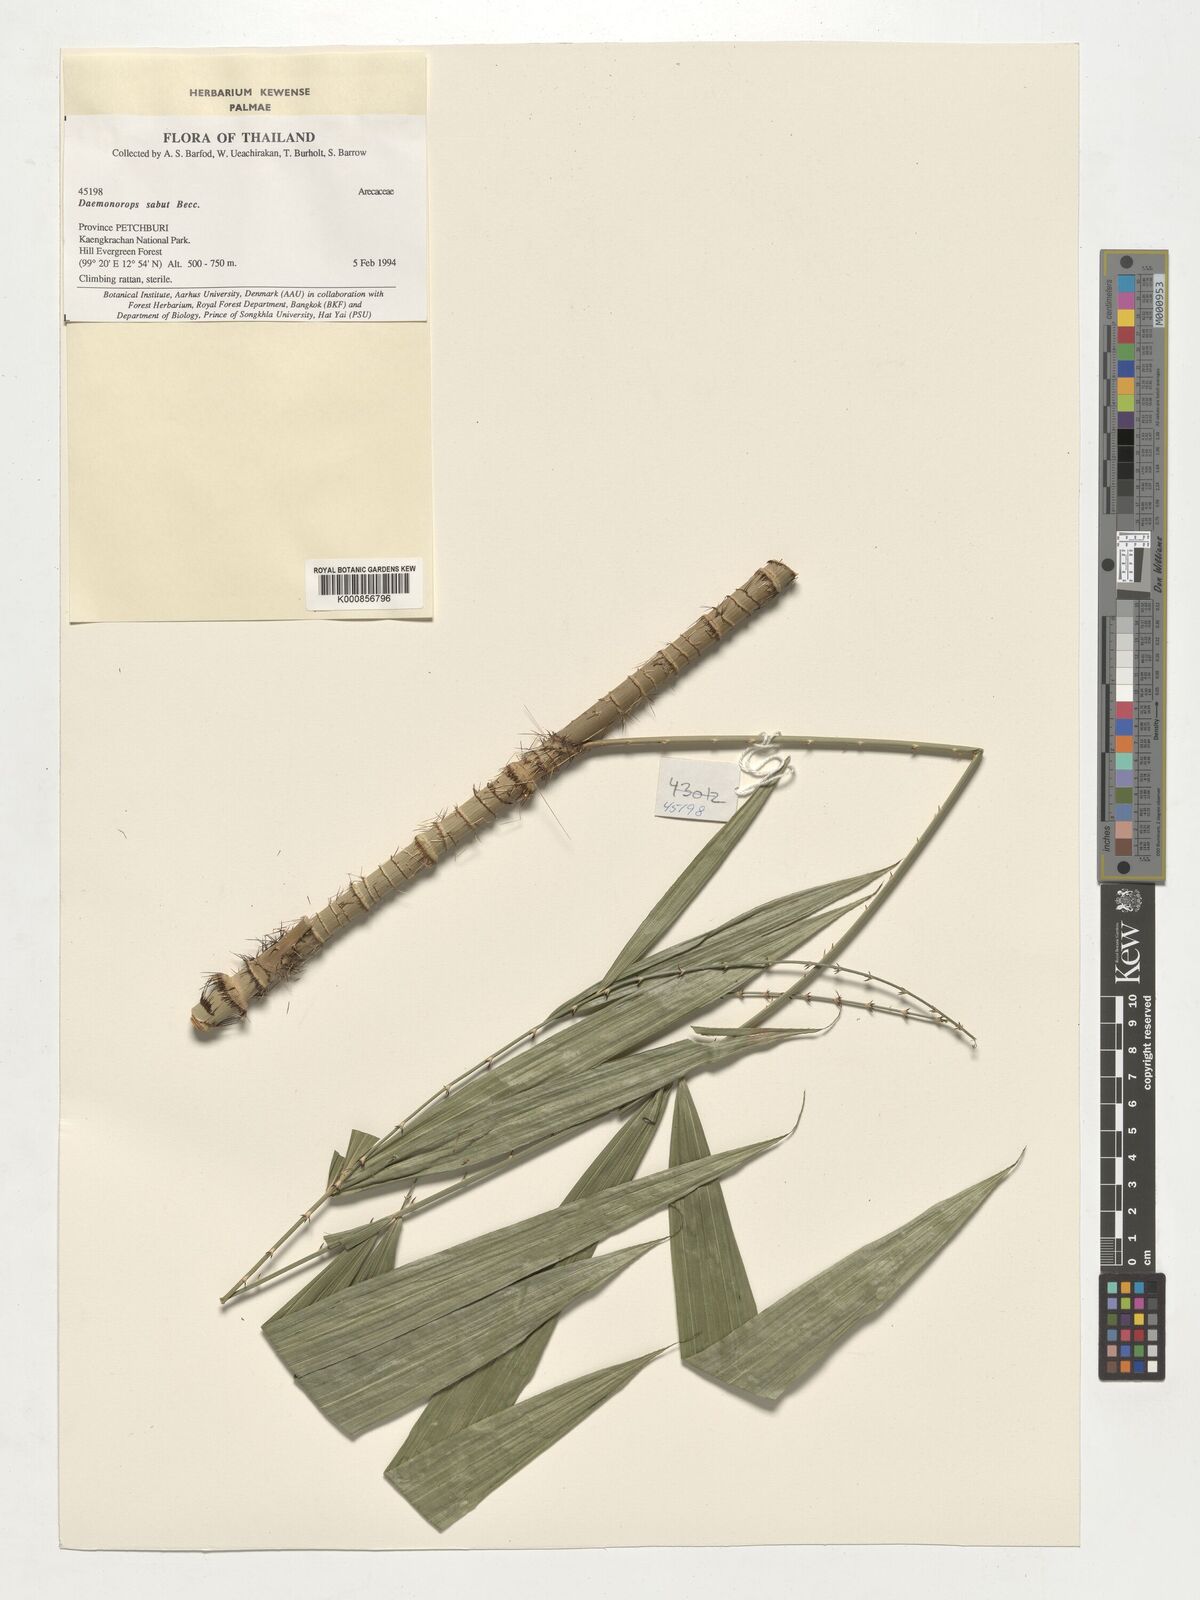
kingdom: Plantae
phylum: Tracheophyta
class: Liliopsida
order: Arecales
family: Arecaceae
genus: Calamus
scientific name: Calamus crinitus
